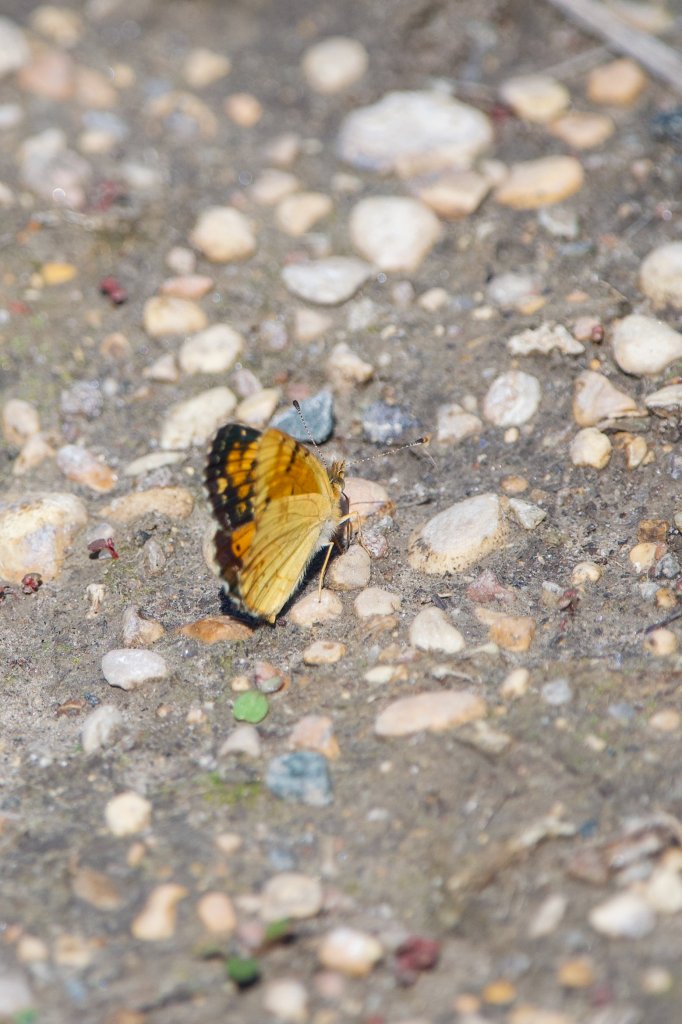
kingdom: Animalia
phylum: Arthropoda
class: Insecta
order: Lepidoptera
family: Nymphalidae
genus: Phyciodes
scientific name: Phyciodes tharos
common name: Northern Crescent
